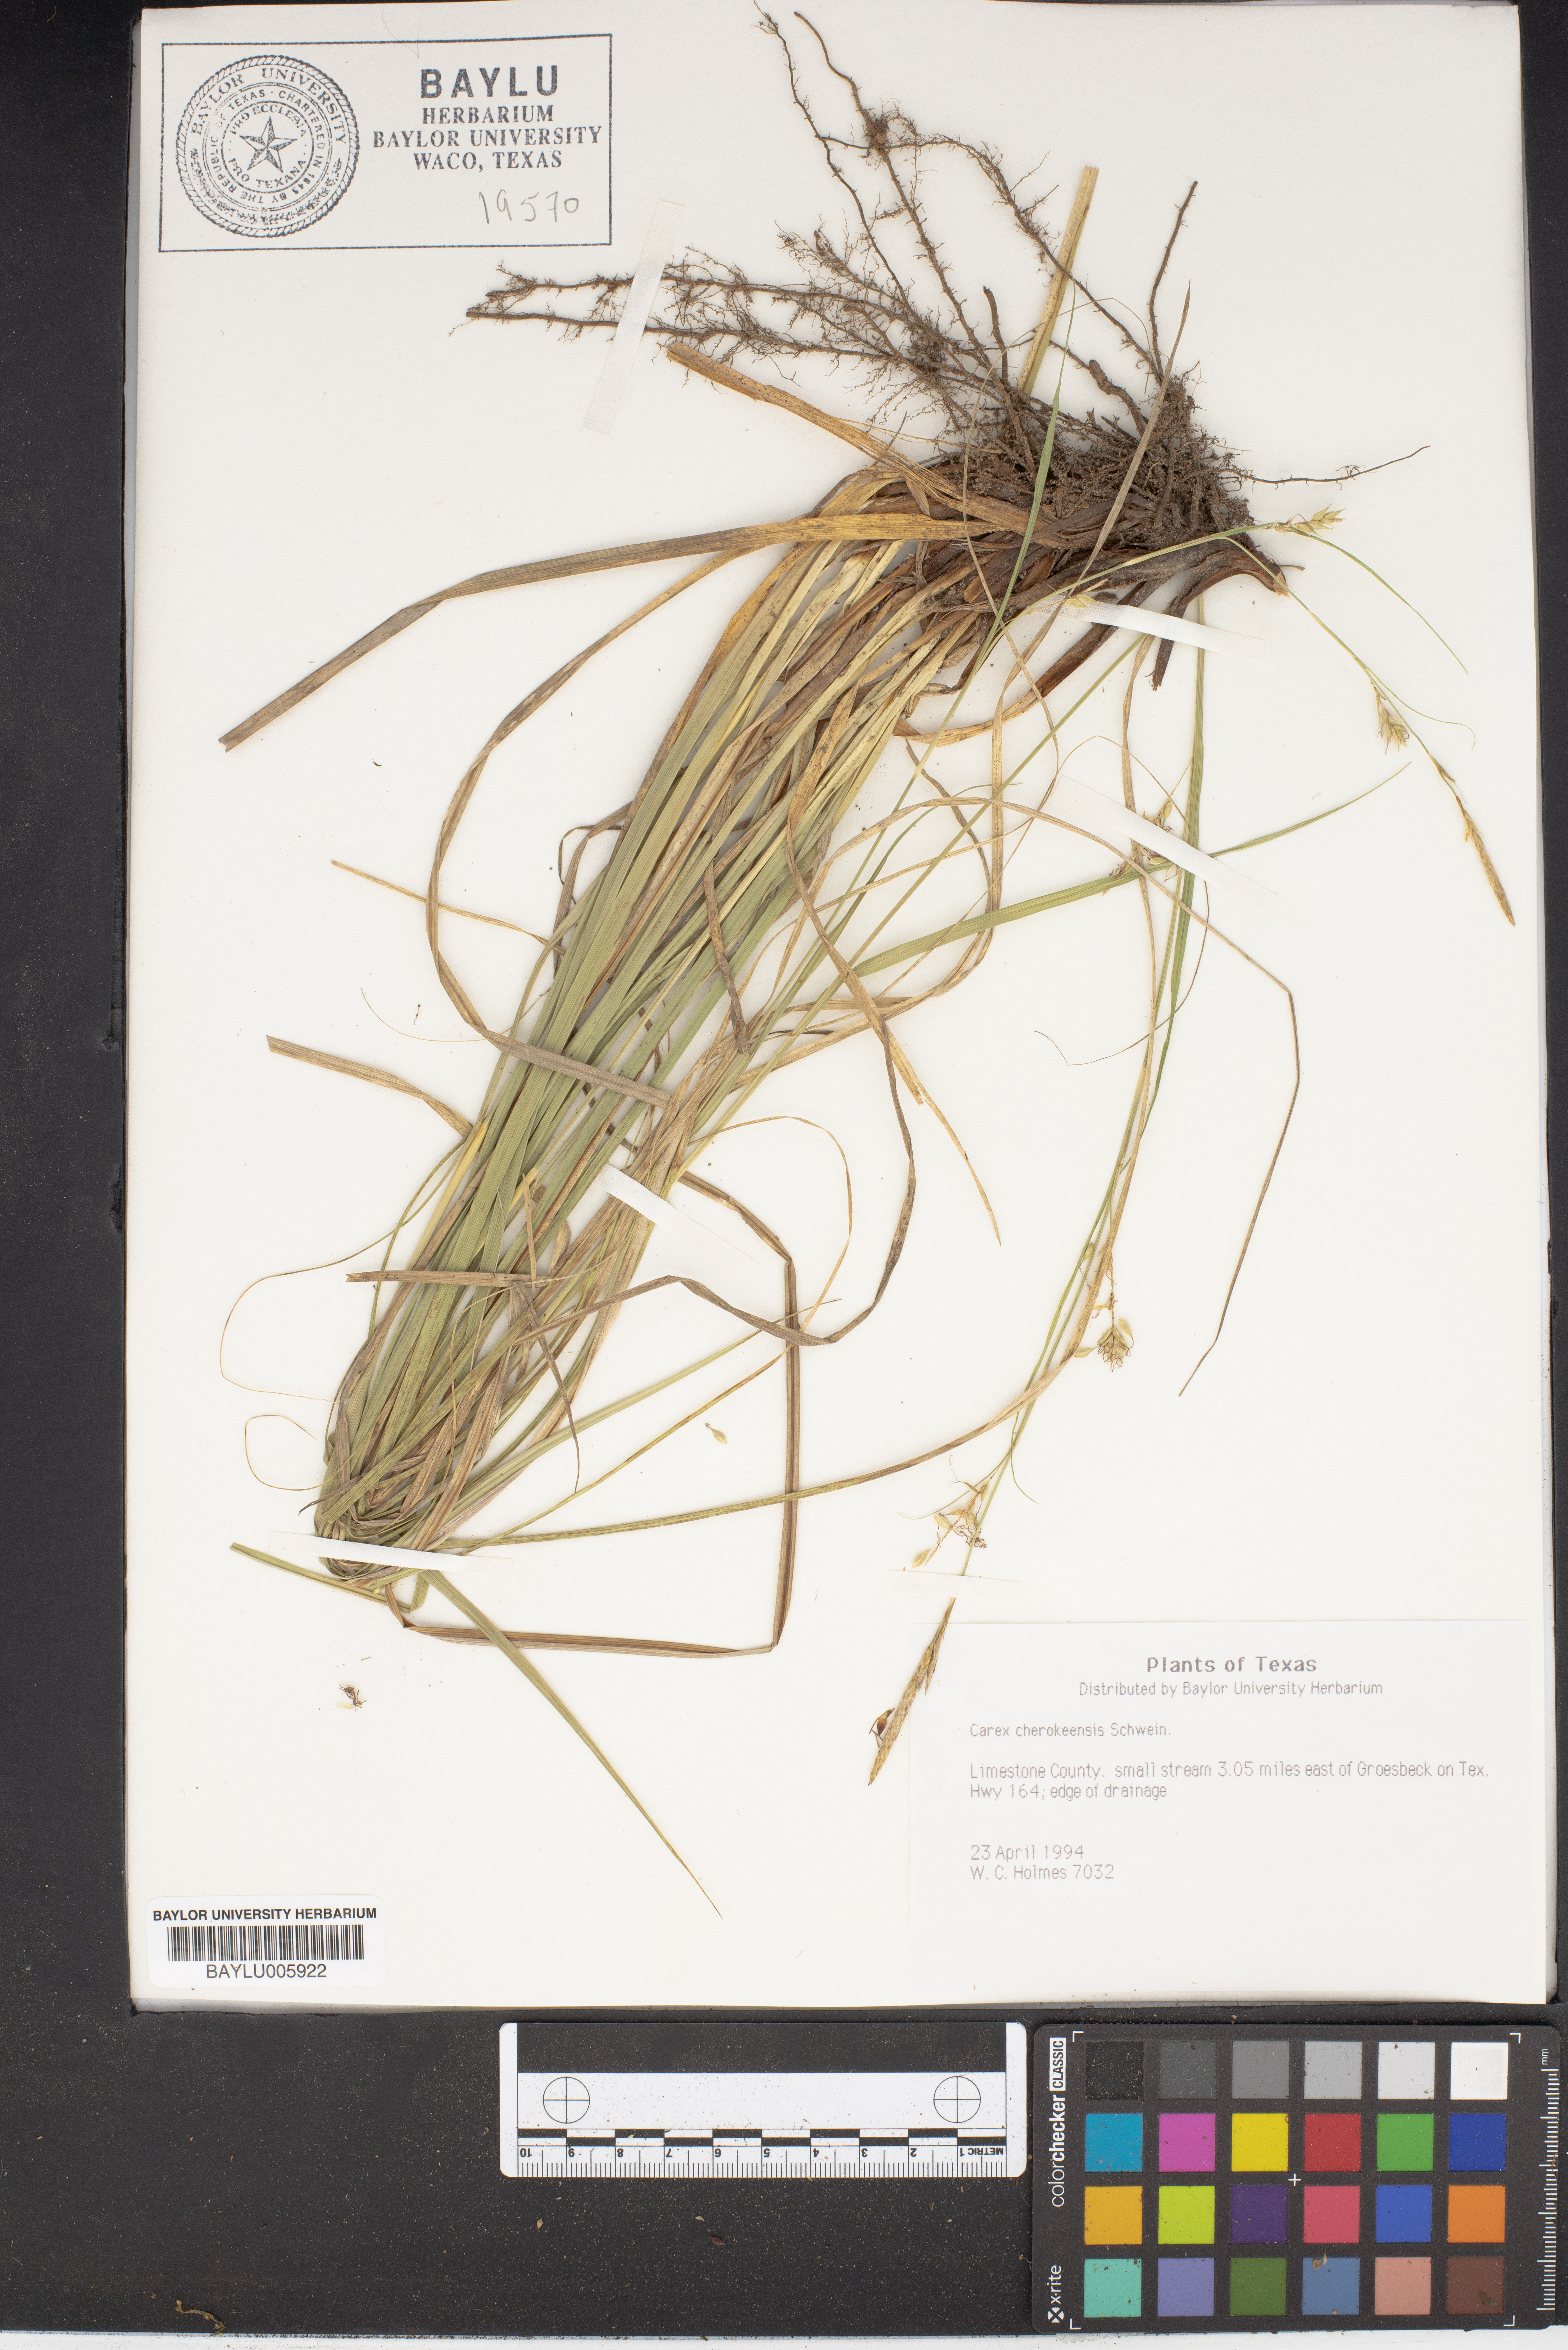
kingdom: Plantae
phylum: Tracheophyta
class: Liliopsida
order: Poales
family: Cyperaceae
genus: Carex
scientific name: Carex cherokeensis
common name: Cherokee sedge
